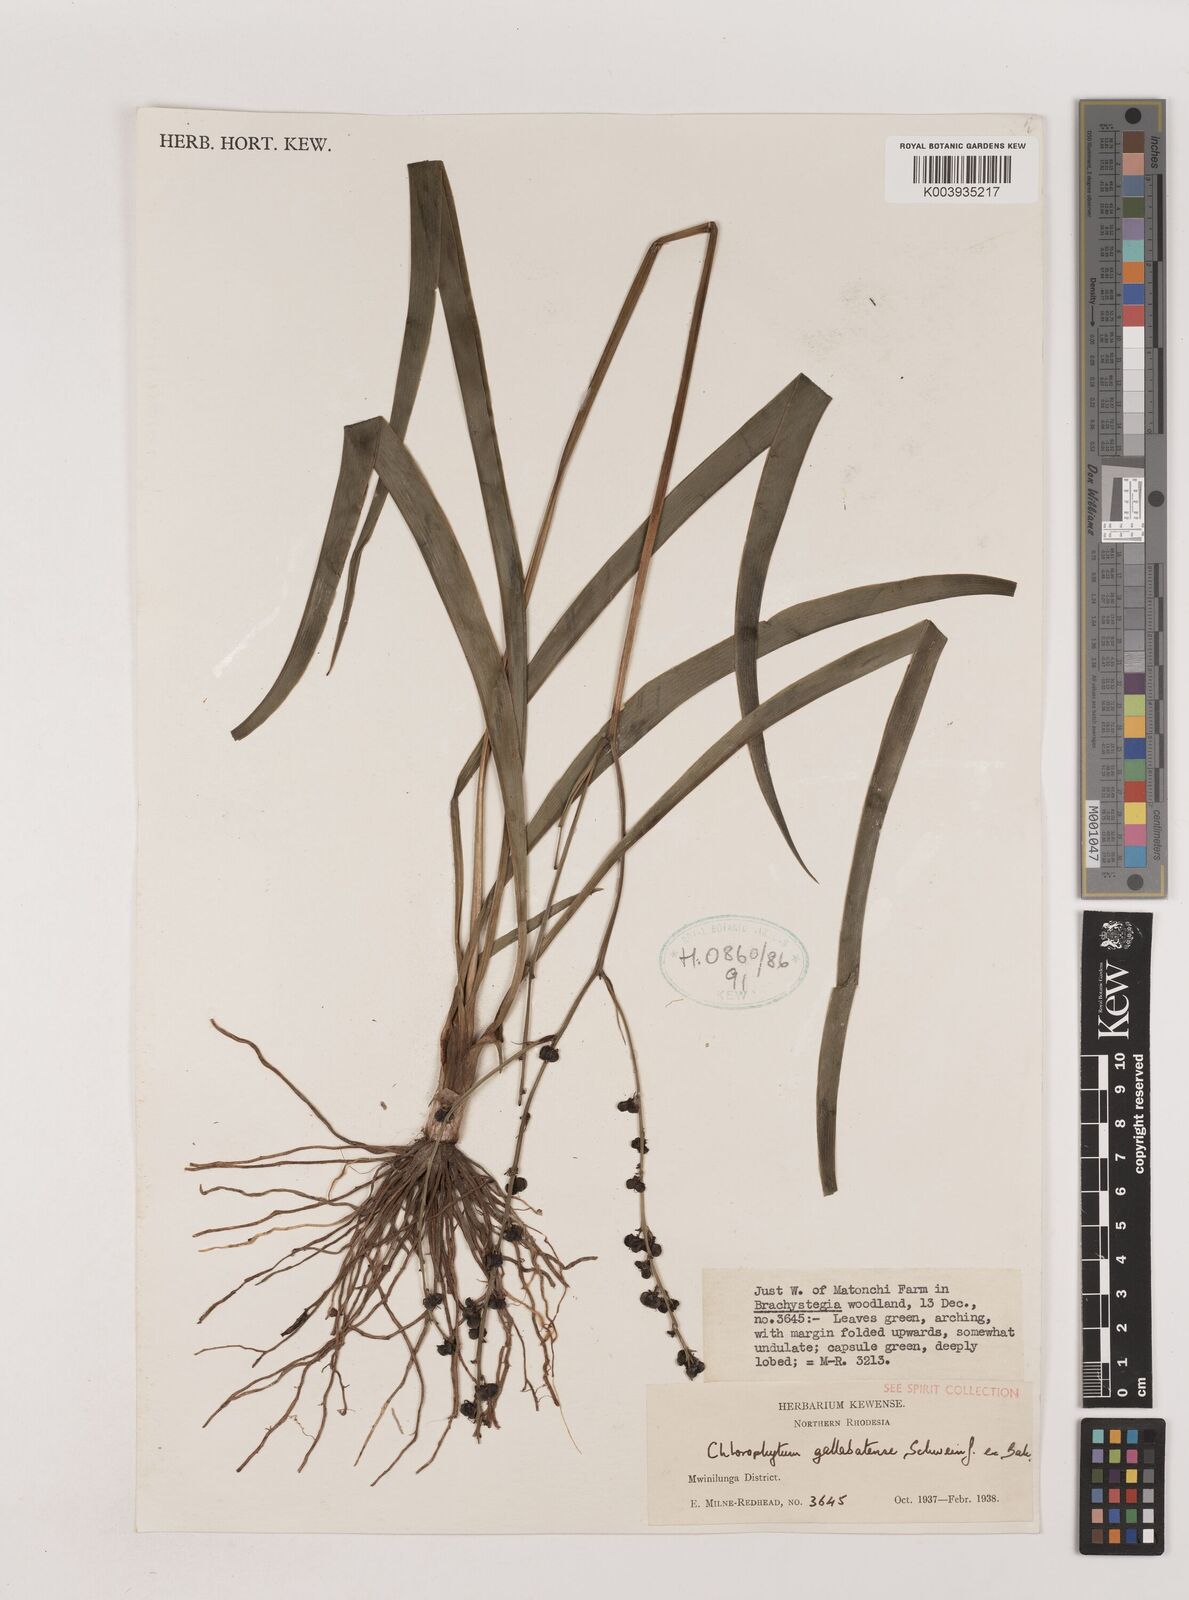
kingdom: Plantae
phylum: Tracheophyta
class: Liliopsida
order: Asparagales
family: Asparagaceae
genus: Chlorophytum
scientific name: Chlorophytum gallabatense
